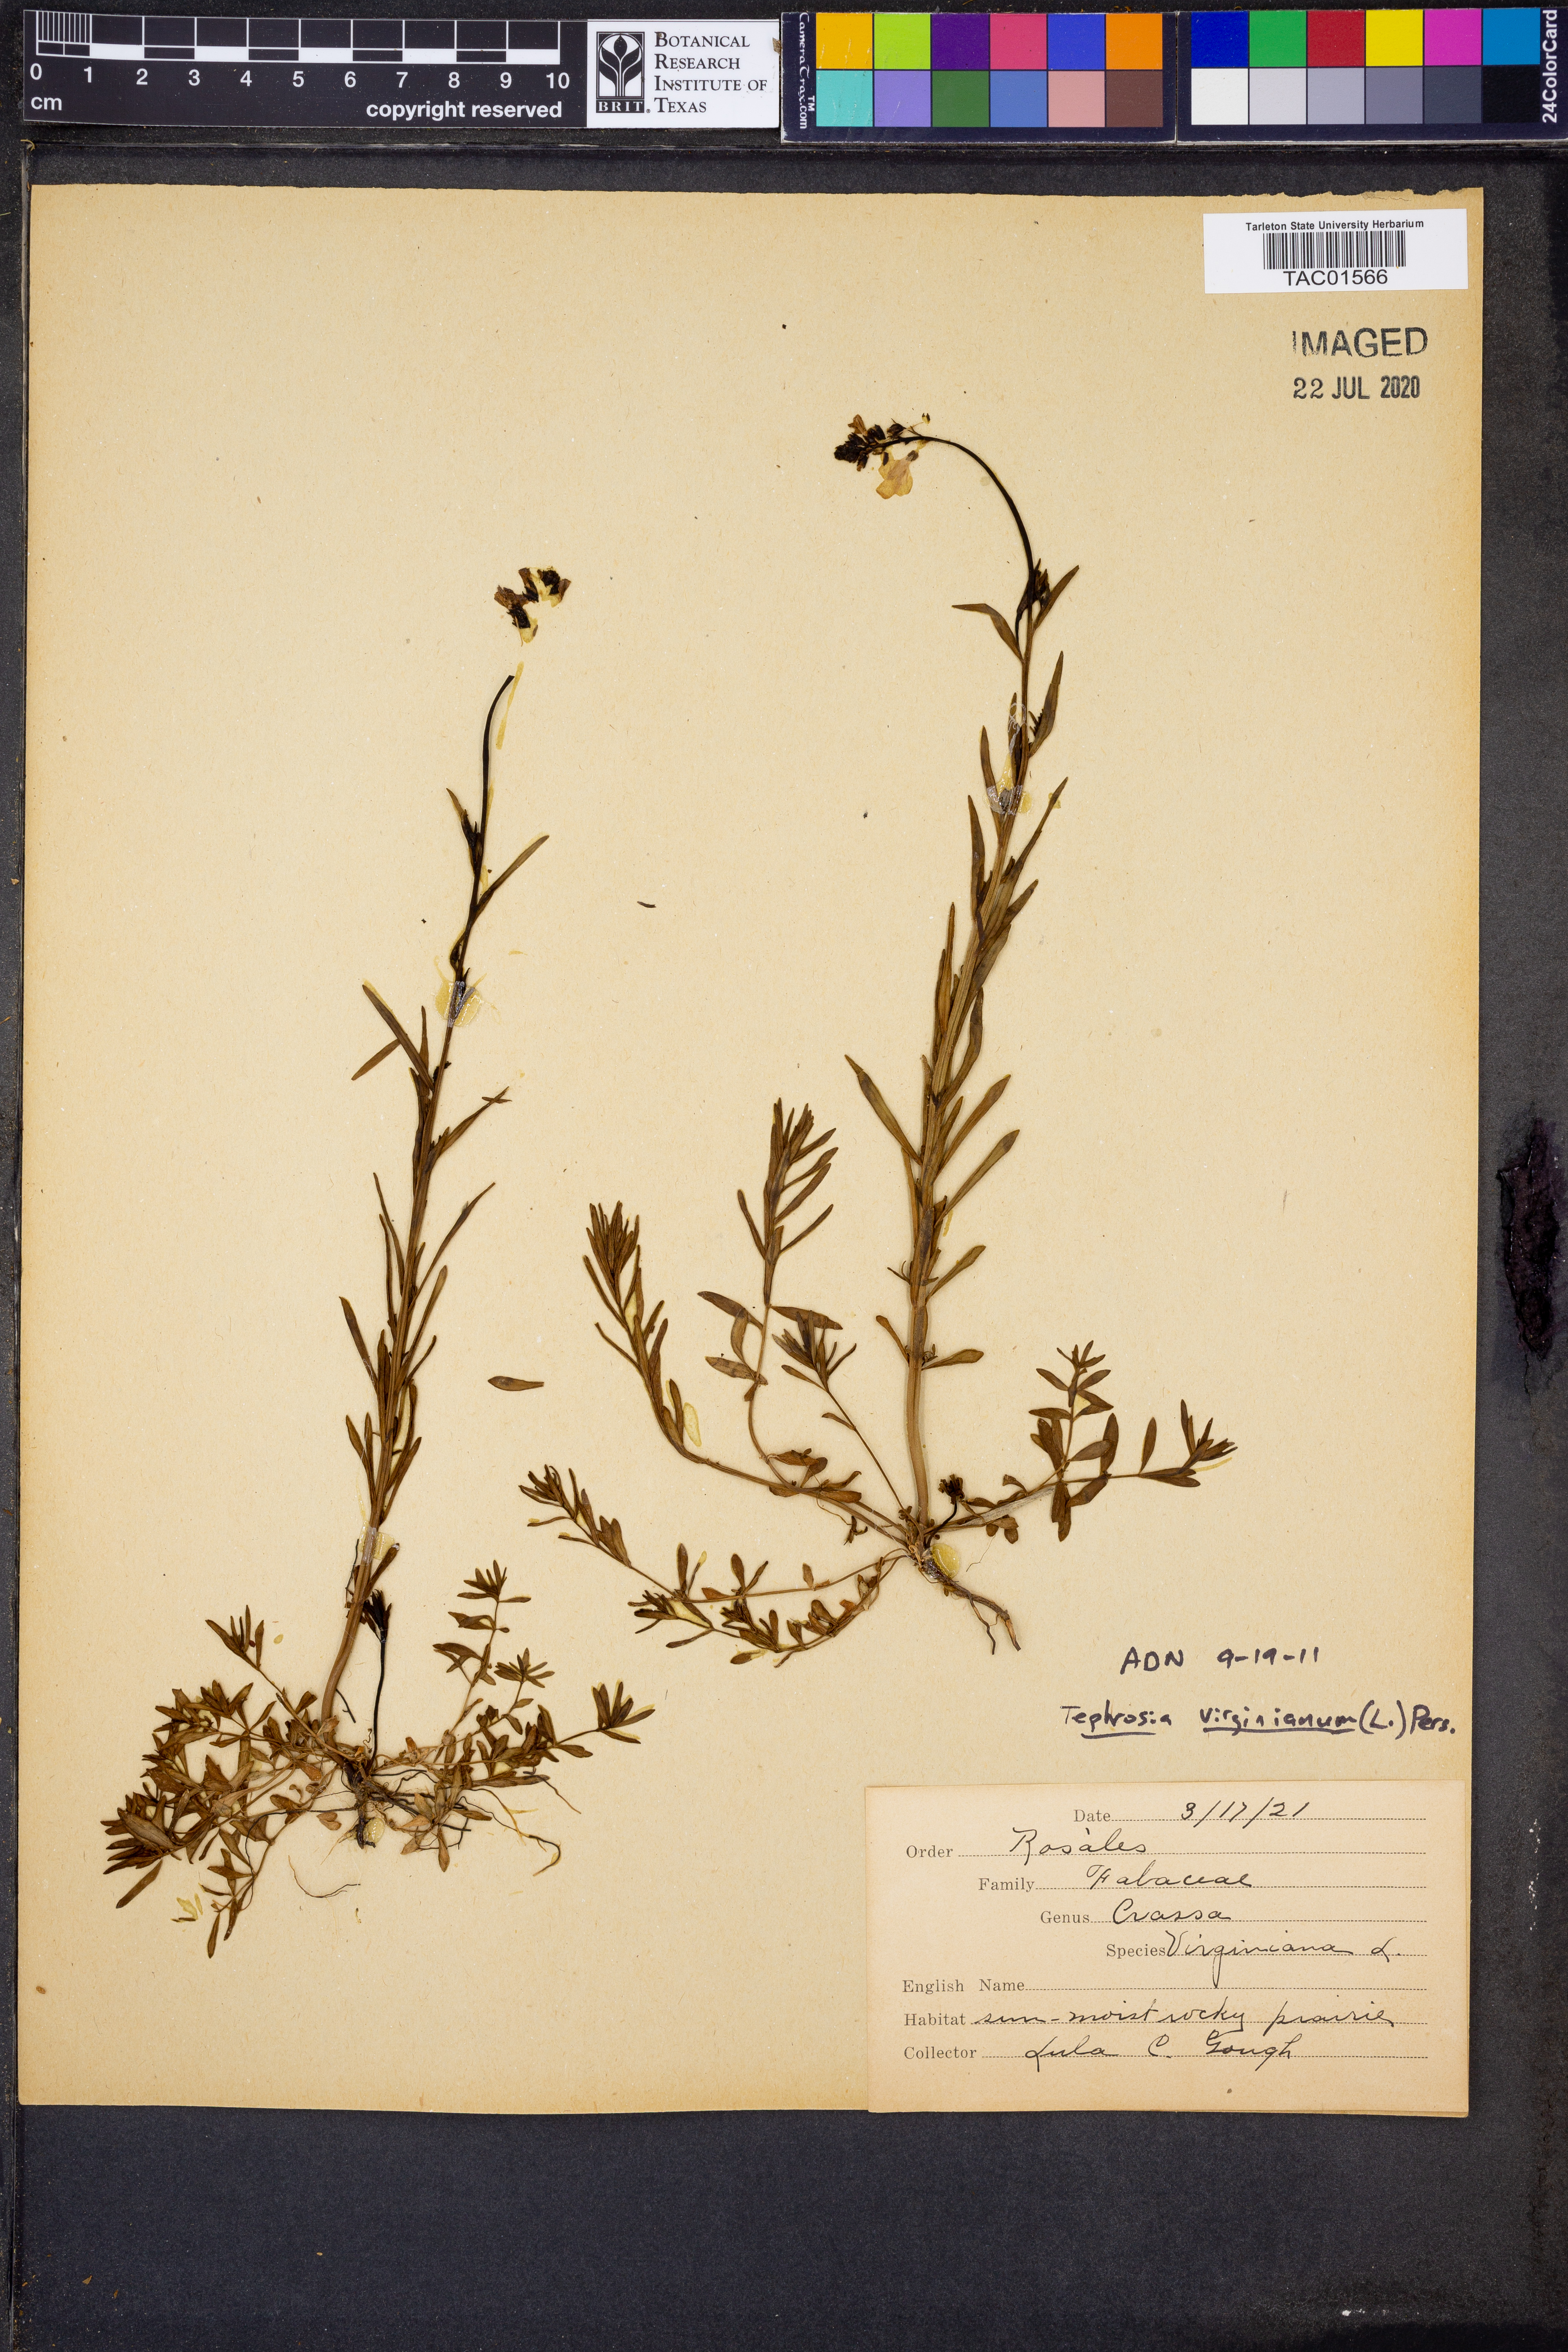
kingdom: Plantae
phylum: Tracheophyta
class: Magnoliopsida
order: Fabales
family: Fabaceae
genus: Tephrosia
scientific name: Tephrosia virginiana
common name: Rabbit-pea
